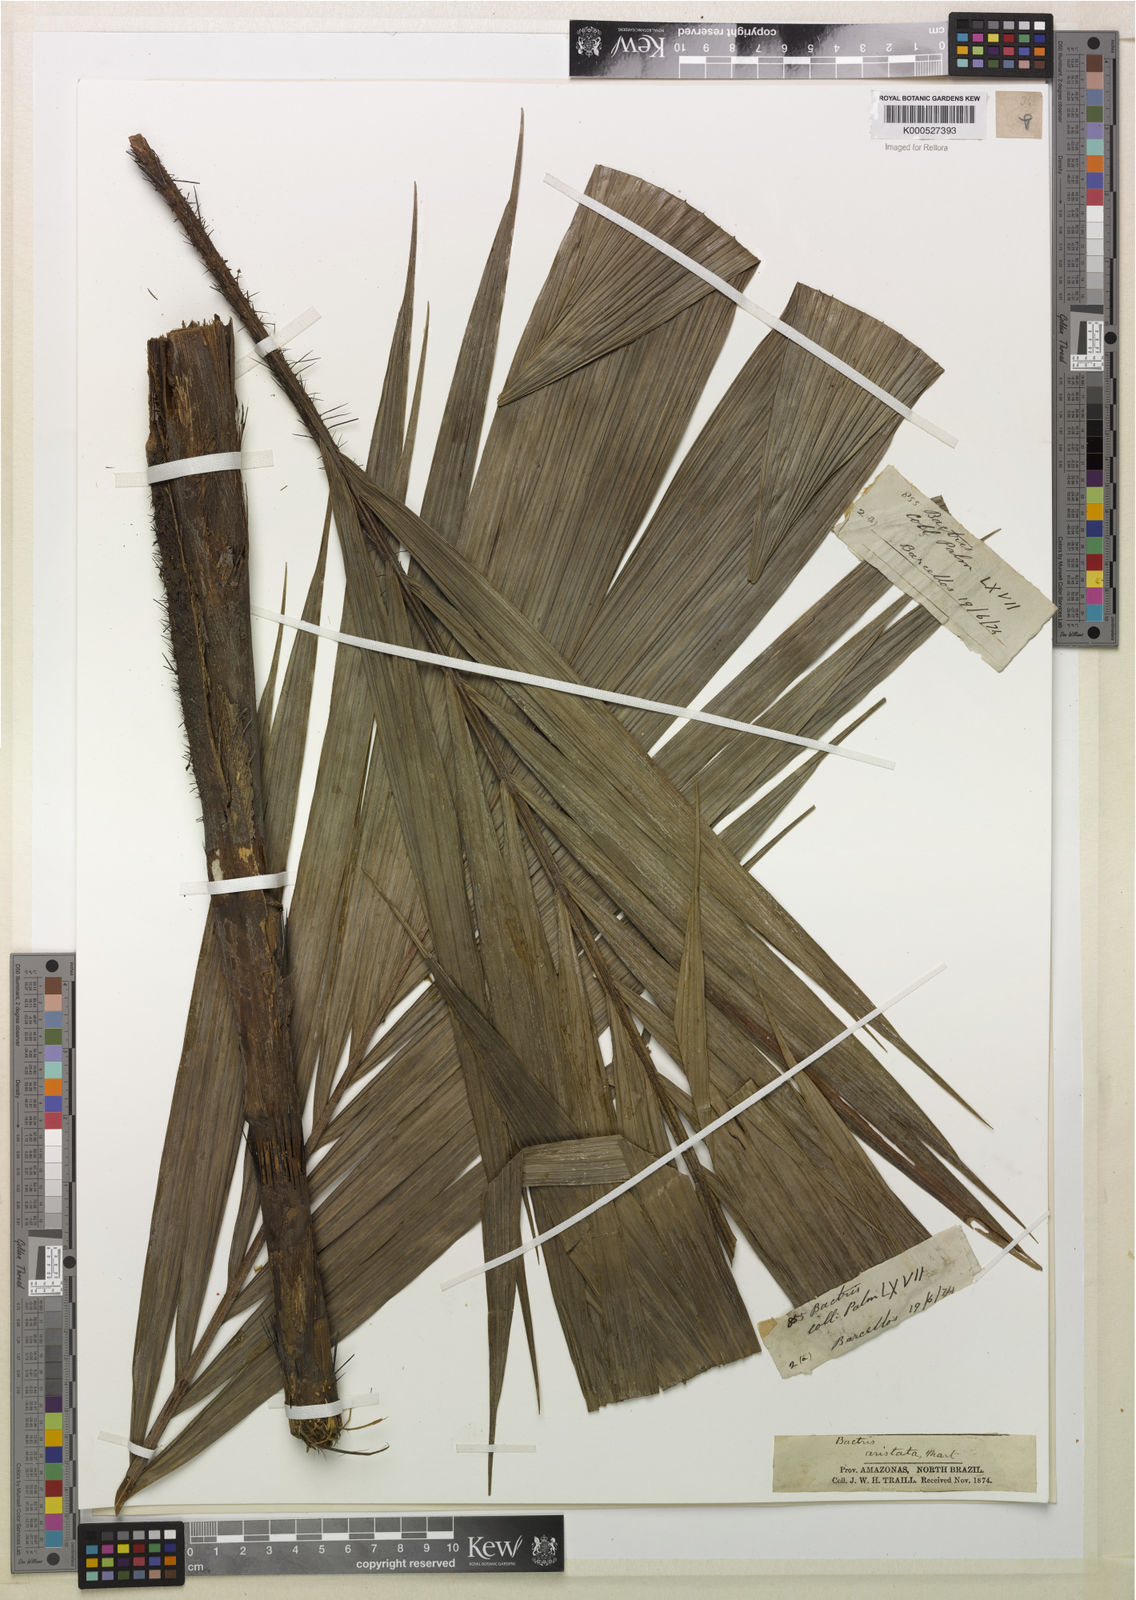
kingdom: Plantae
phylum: Tracheophyta
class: Liliopsida
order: Arecales
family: Arecaceae
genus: Bactris
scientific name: Bactris fissifrons
